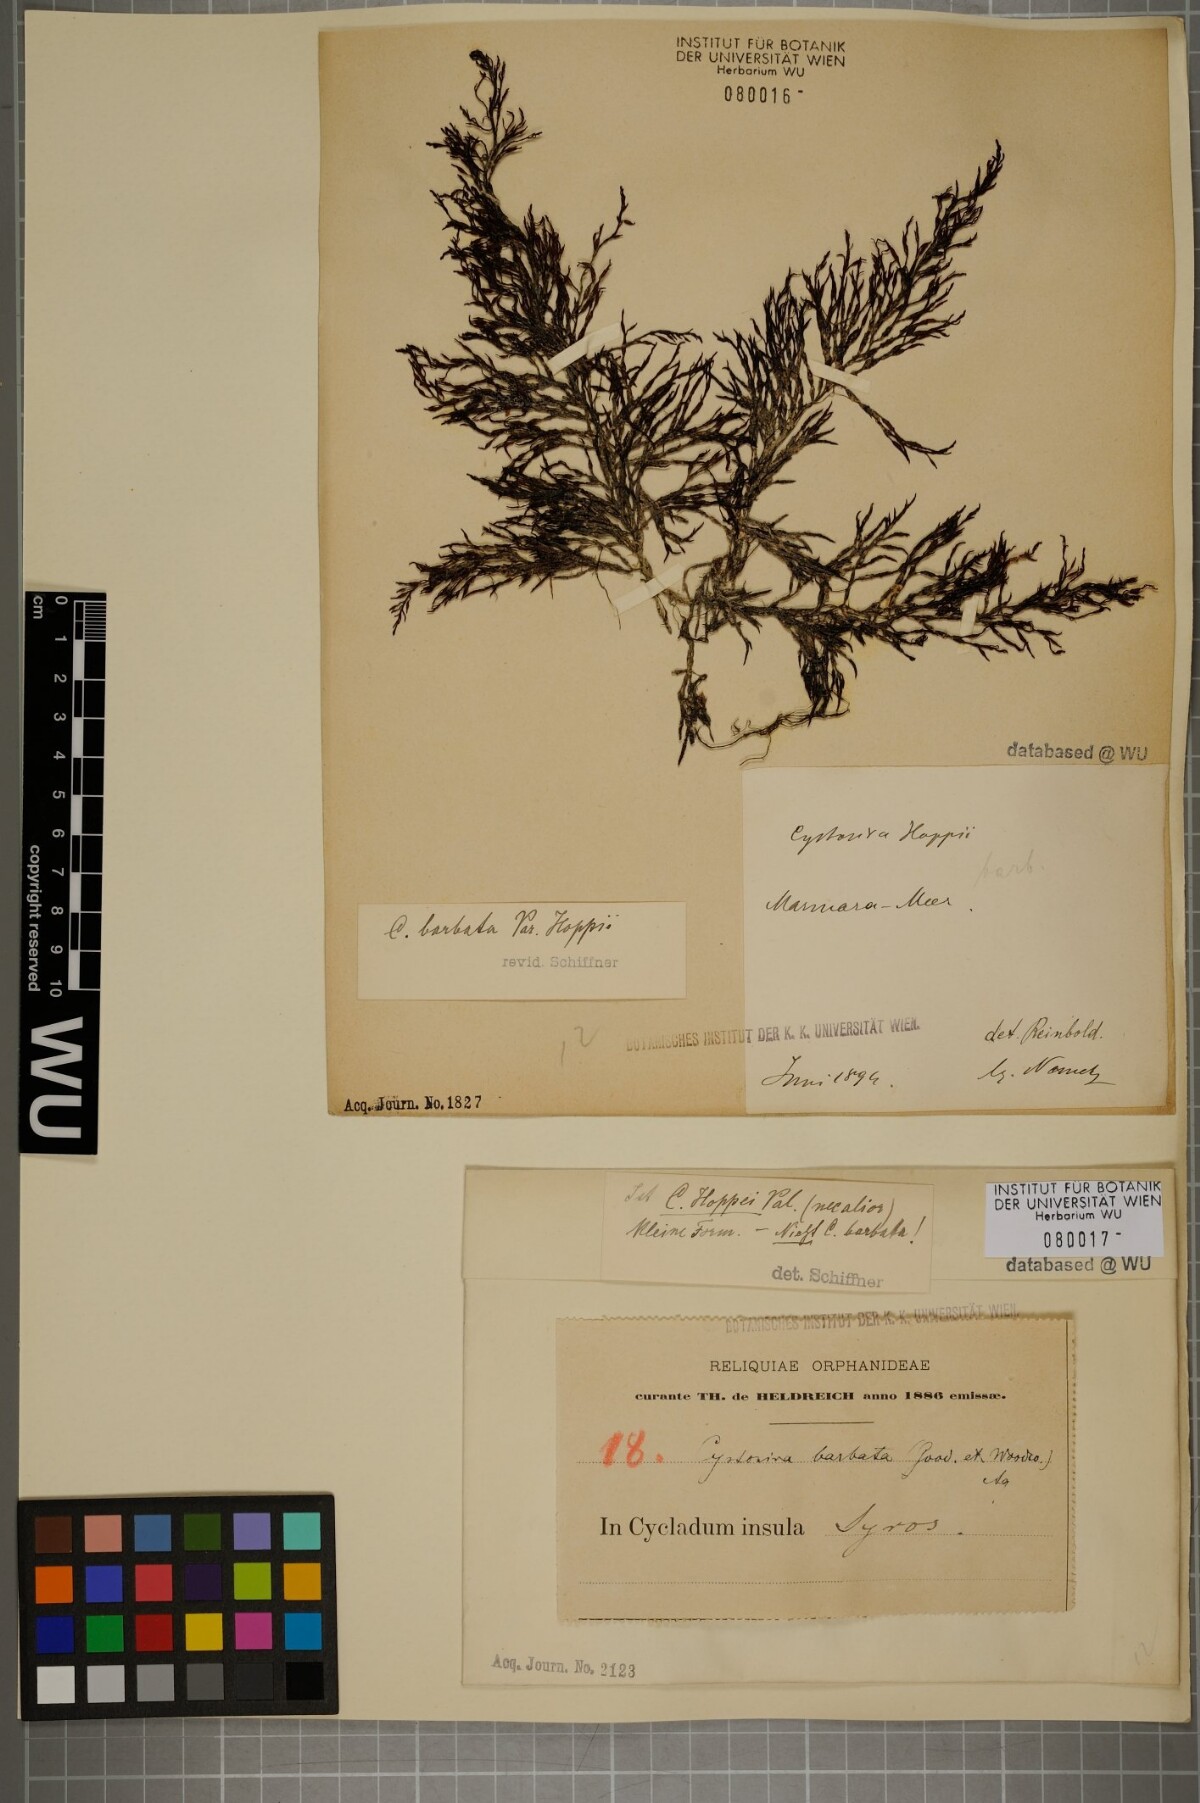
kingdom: Chromista
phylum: Ochrophyta
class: Phaeophyceae
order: Fucales
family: Sargassaceae
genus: Cystoseira
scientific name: Cystoseira Gongolaria barbata
